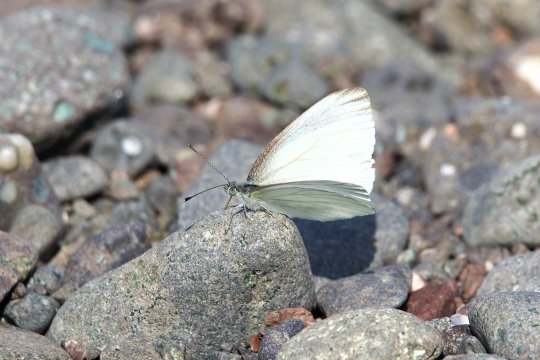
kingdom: Animalia
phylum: Arthropoda
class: Insecta
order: Lepidoptera
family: Pieridae
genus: Pieris
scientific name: Pieris oleracea
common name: Mustard White
